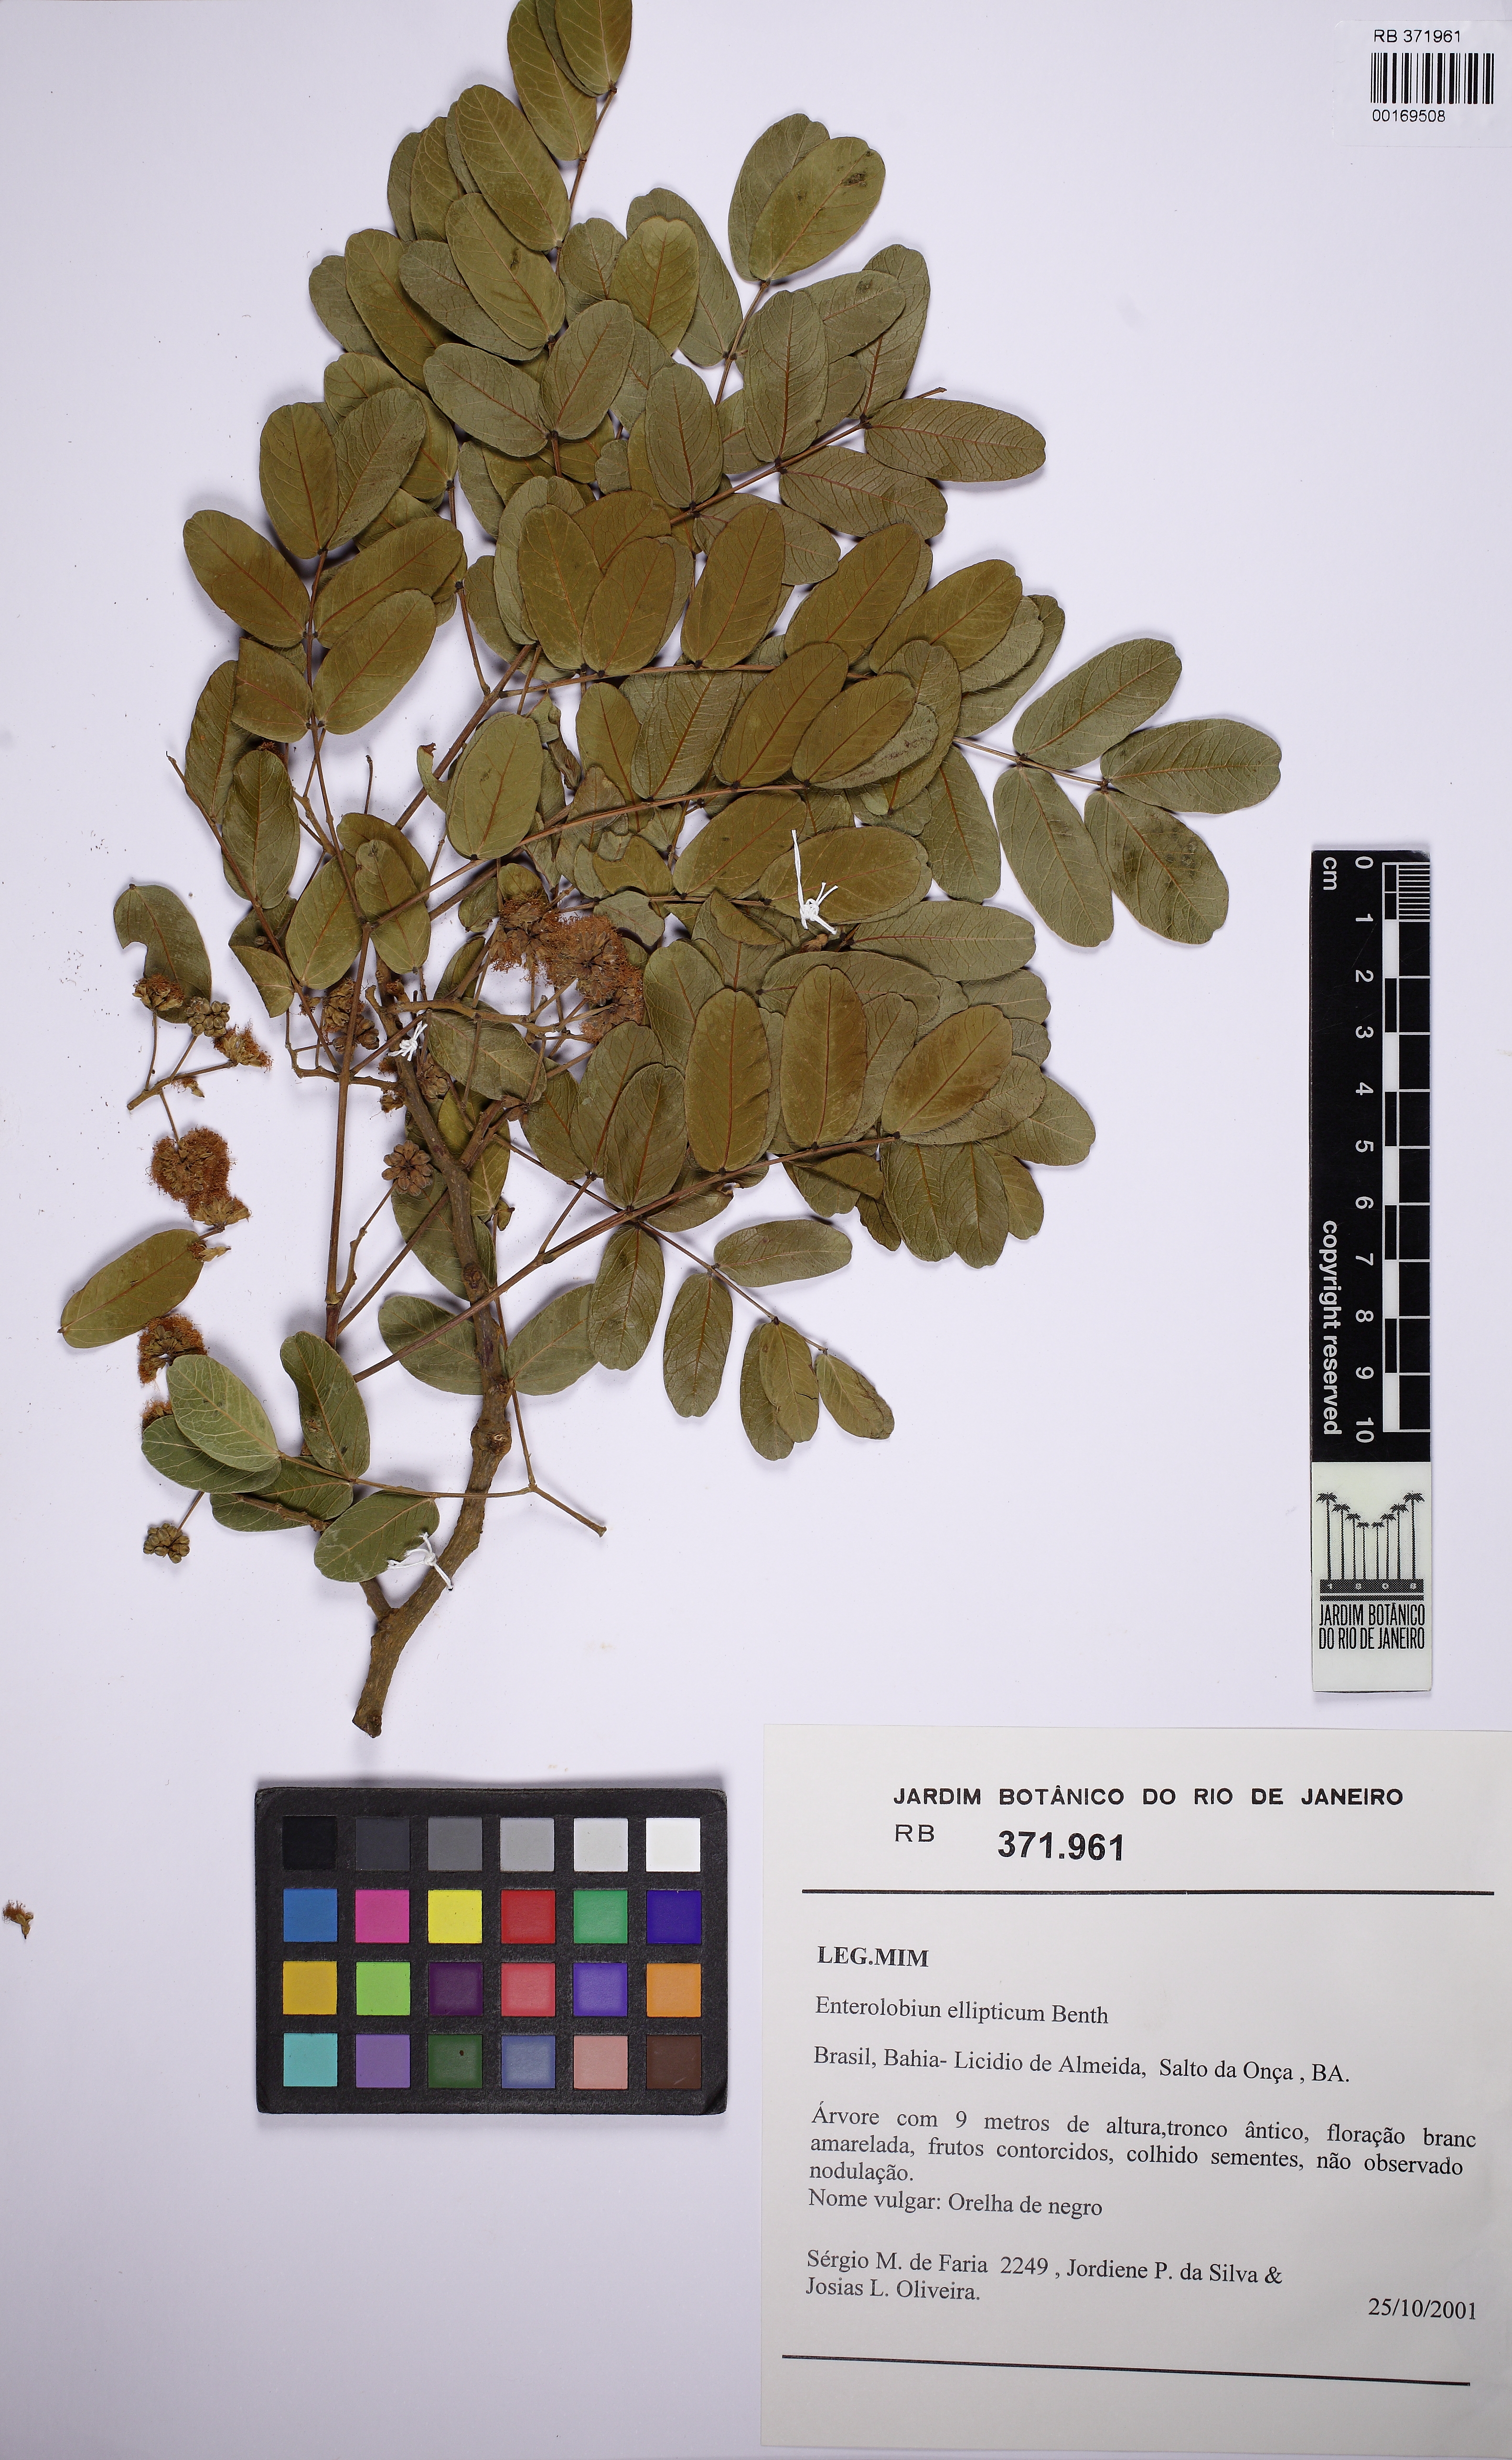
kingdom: Plantae
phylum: Tracheophyta
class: Magnoliopsida
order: Fabales
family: Fabaceae
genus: Enterolobium
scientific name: Enterolobium gummiferum
